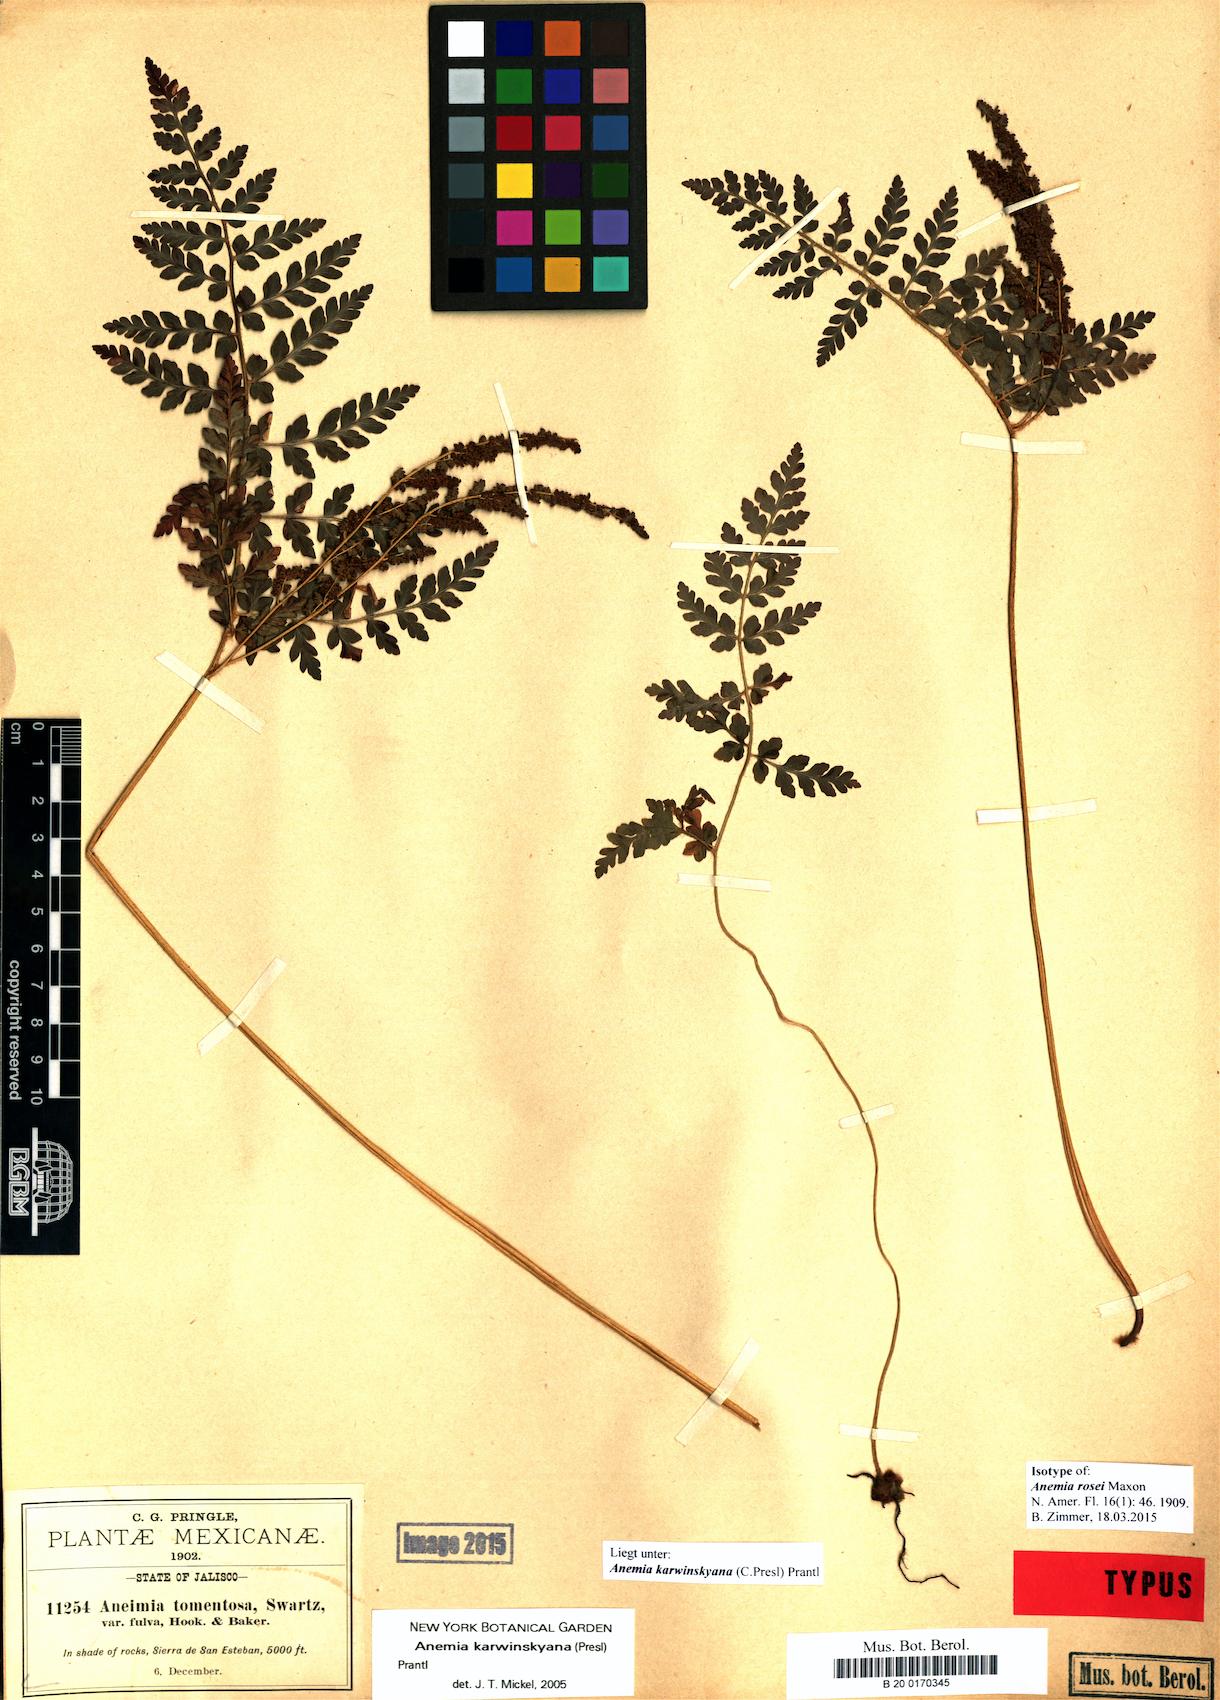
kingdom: Plantae
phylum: Tracheophyta
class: Polypodiopsida
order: Schizaeales
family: Anemiaceae
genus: Anemia
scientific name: Anemia karwinskyana
